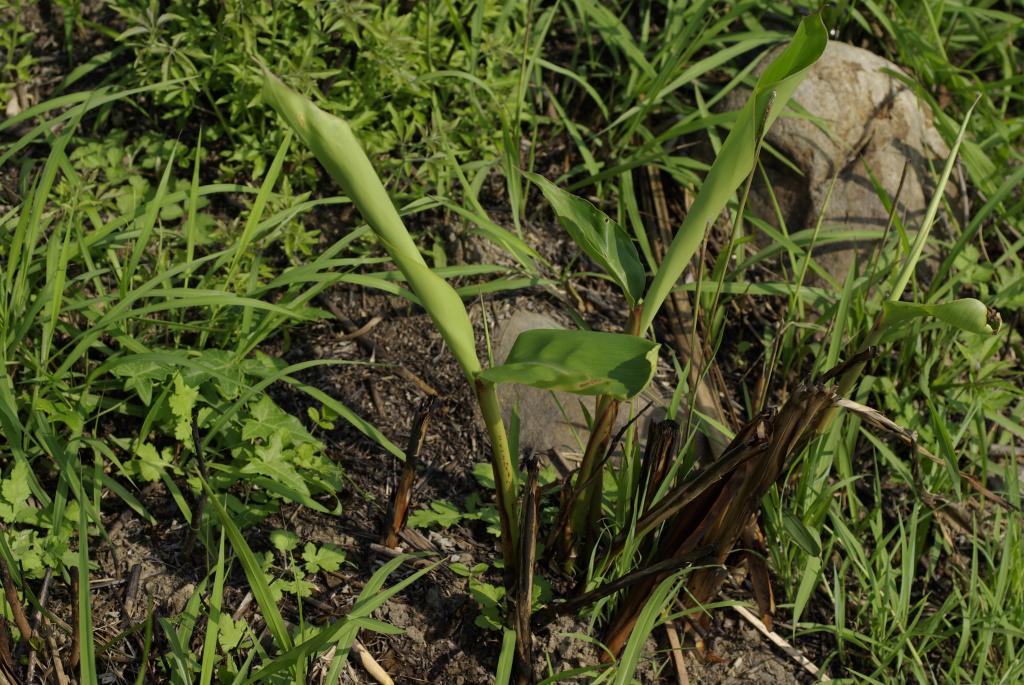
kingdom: Plantae
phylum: Tracheophyta
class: Liliopsida
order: Zingiberales
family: Zingiberaceae
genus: Alpinia
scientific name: Alpinia zerumbet
